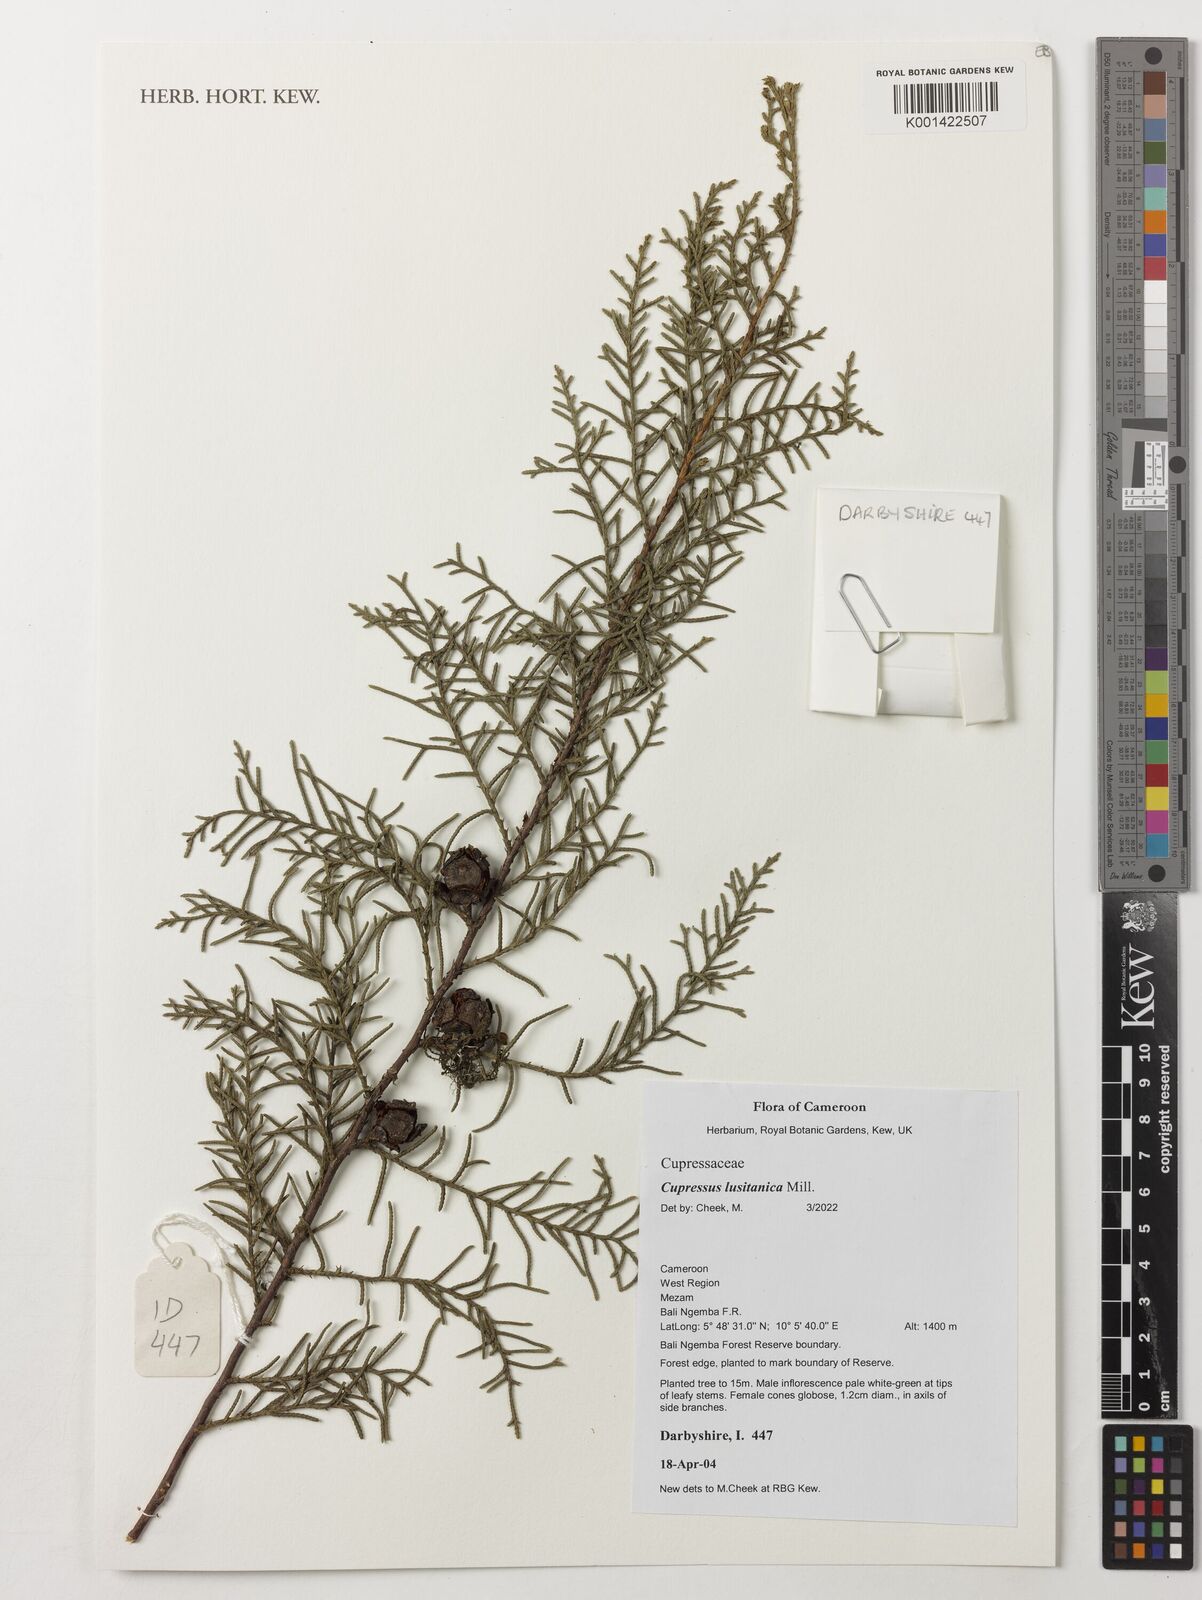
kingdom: Plantae
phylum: Tracheophyta
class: Pinopsida
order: Pinales
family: Cupressaceae
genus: Cupressus
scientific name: Cupressus lusitanica
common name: Mexican cypress
